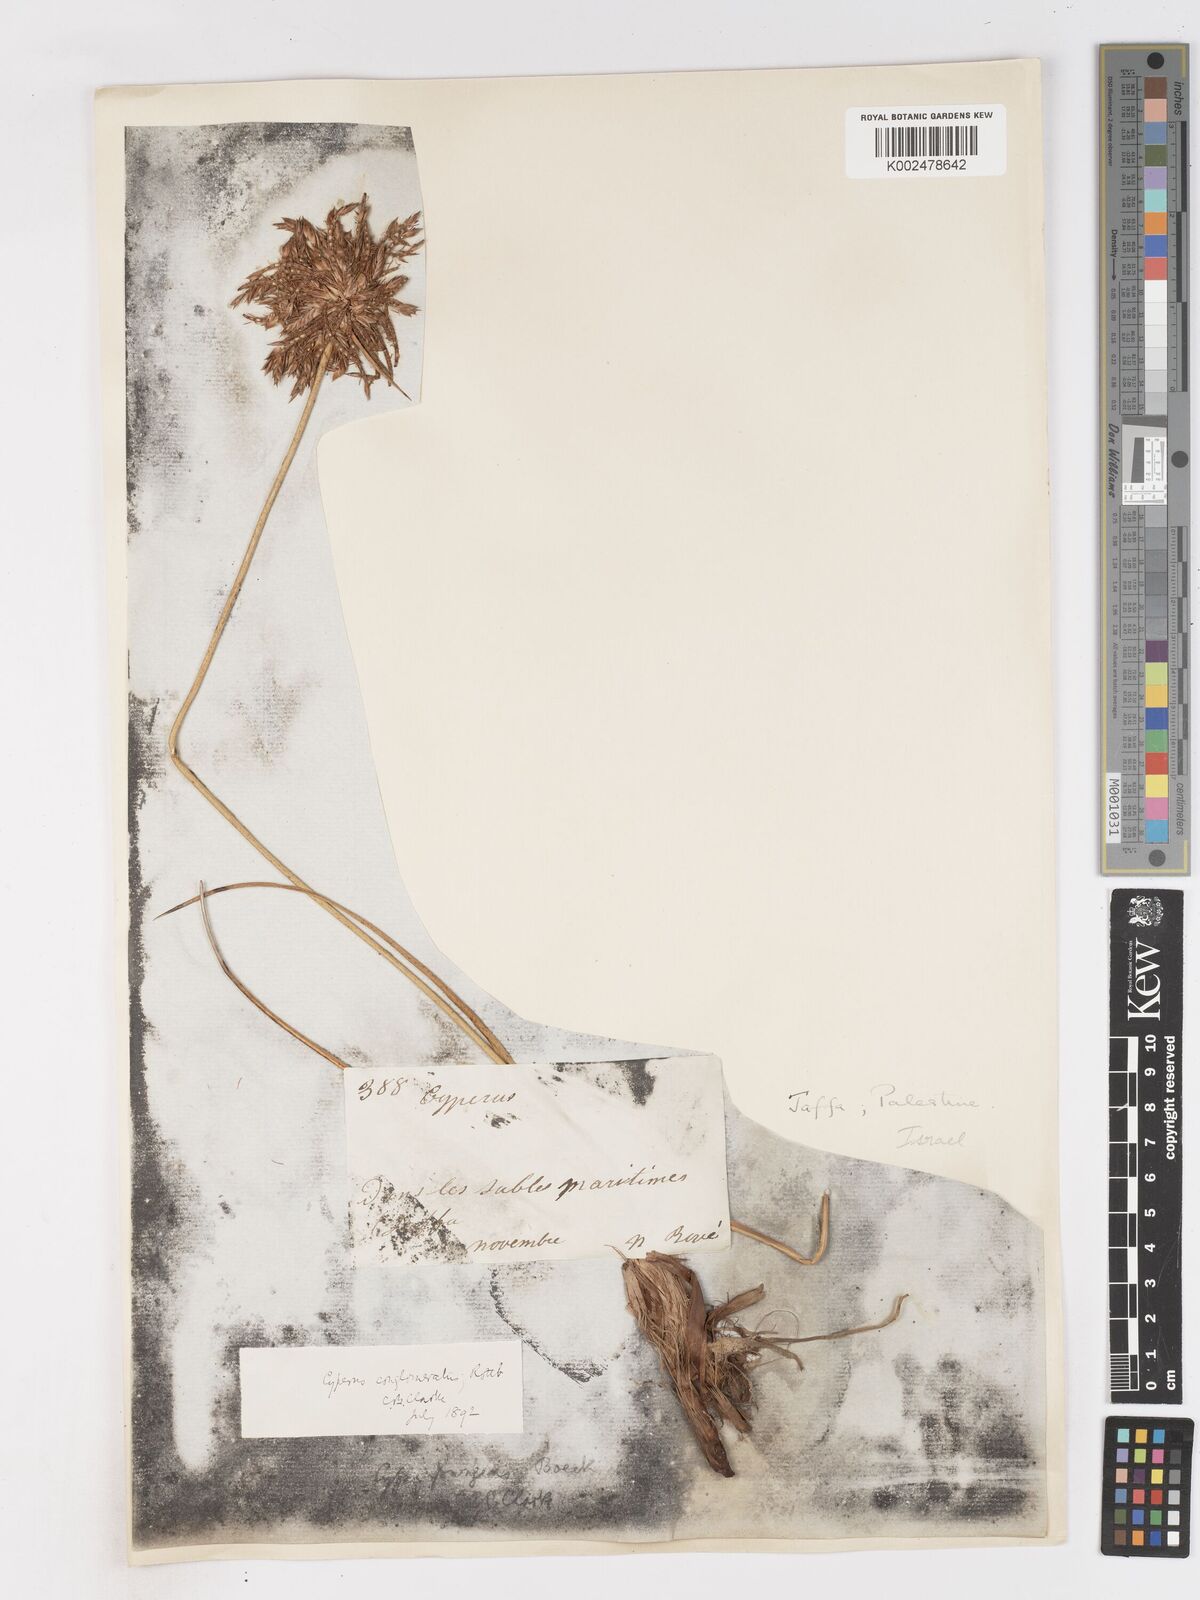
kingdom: Plantae
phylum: Tracheophyta
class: Liliopsida
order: Poales
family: Cyperaceae
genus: Cyperus
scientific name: Cyperus conglomeratus
